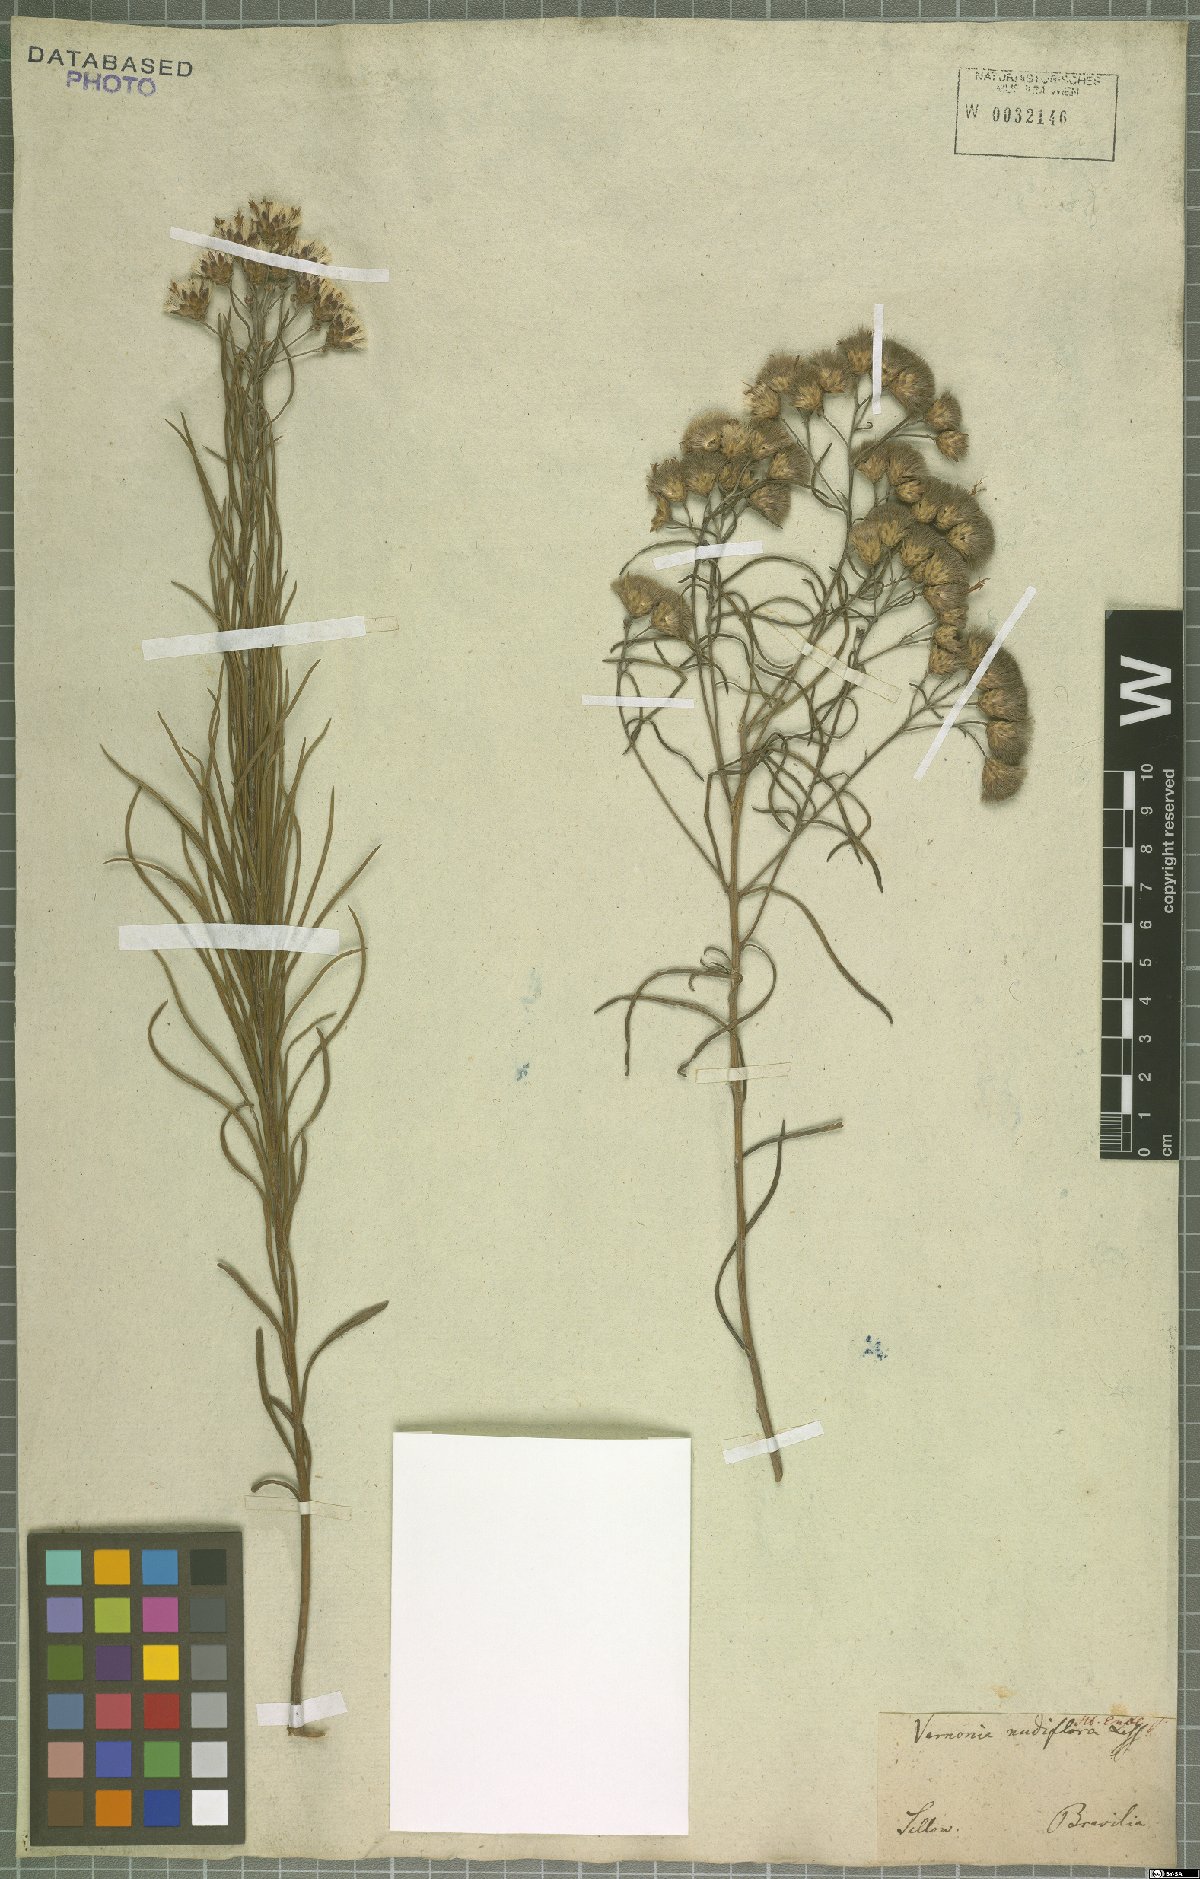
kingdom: Plantae
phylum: Tracheophyta
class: Magnoliopsida
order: Asterales
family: Asteraceae
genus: Vernonanthura
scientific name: Vernonanthura nudiflora
